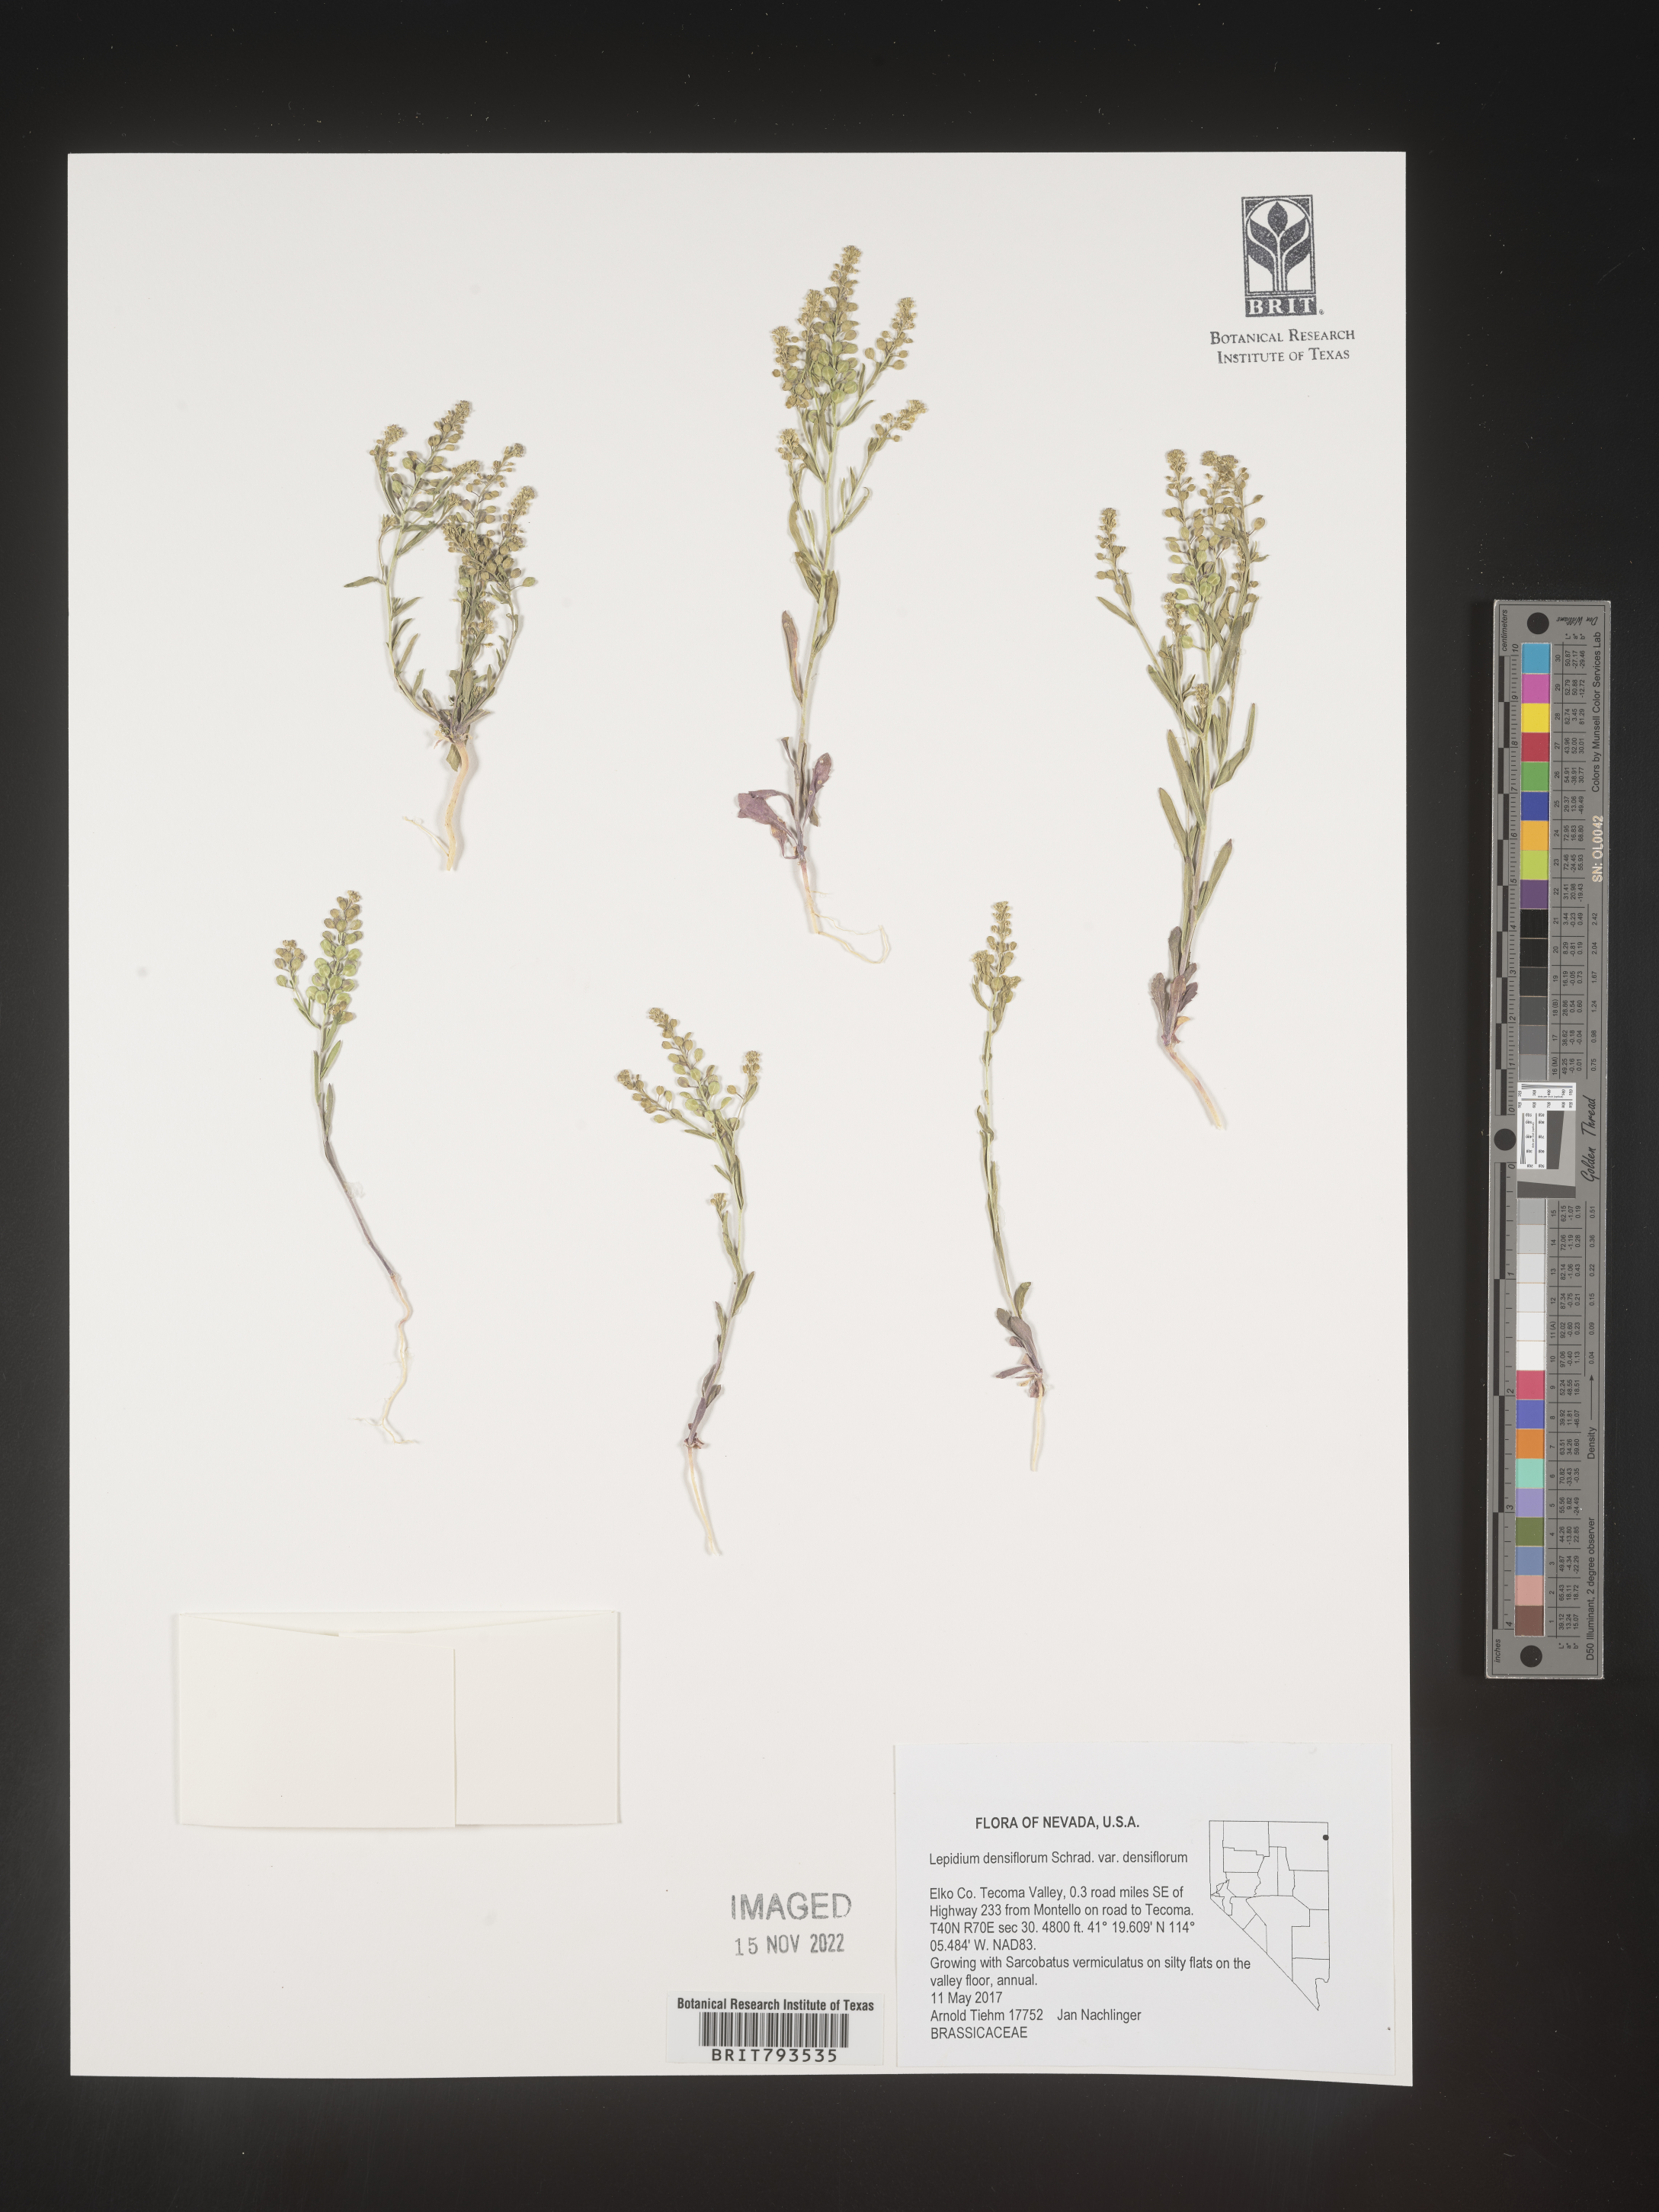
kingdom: Plantae
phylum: Tracheophyta
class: Magnoliopsida
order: Brassicales
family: Brassicaceae
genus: Lepidium
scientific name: Lepidium densiflorum
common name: Miner's pepperwort
